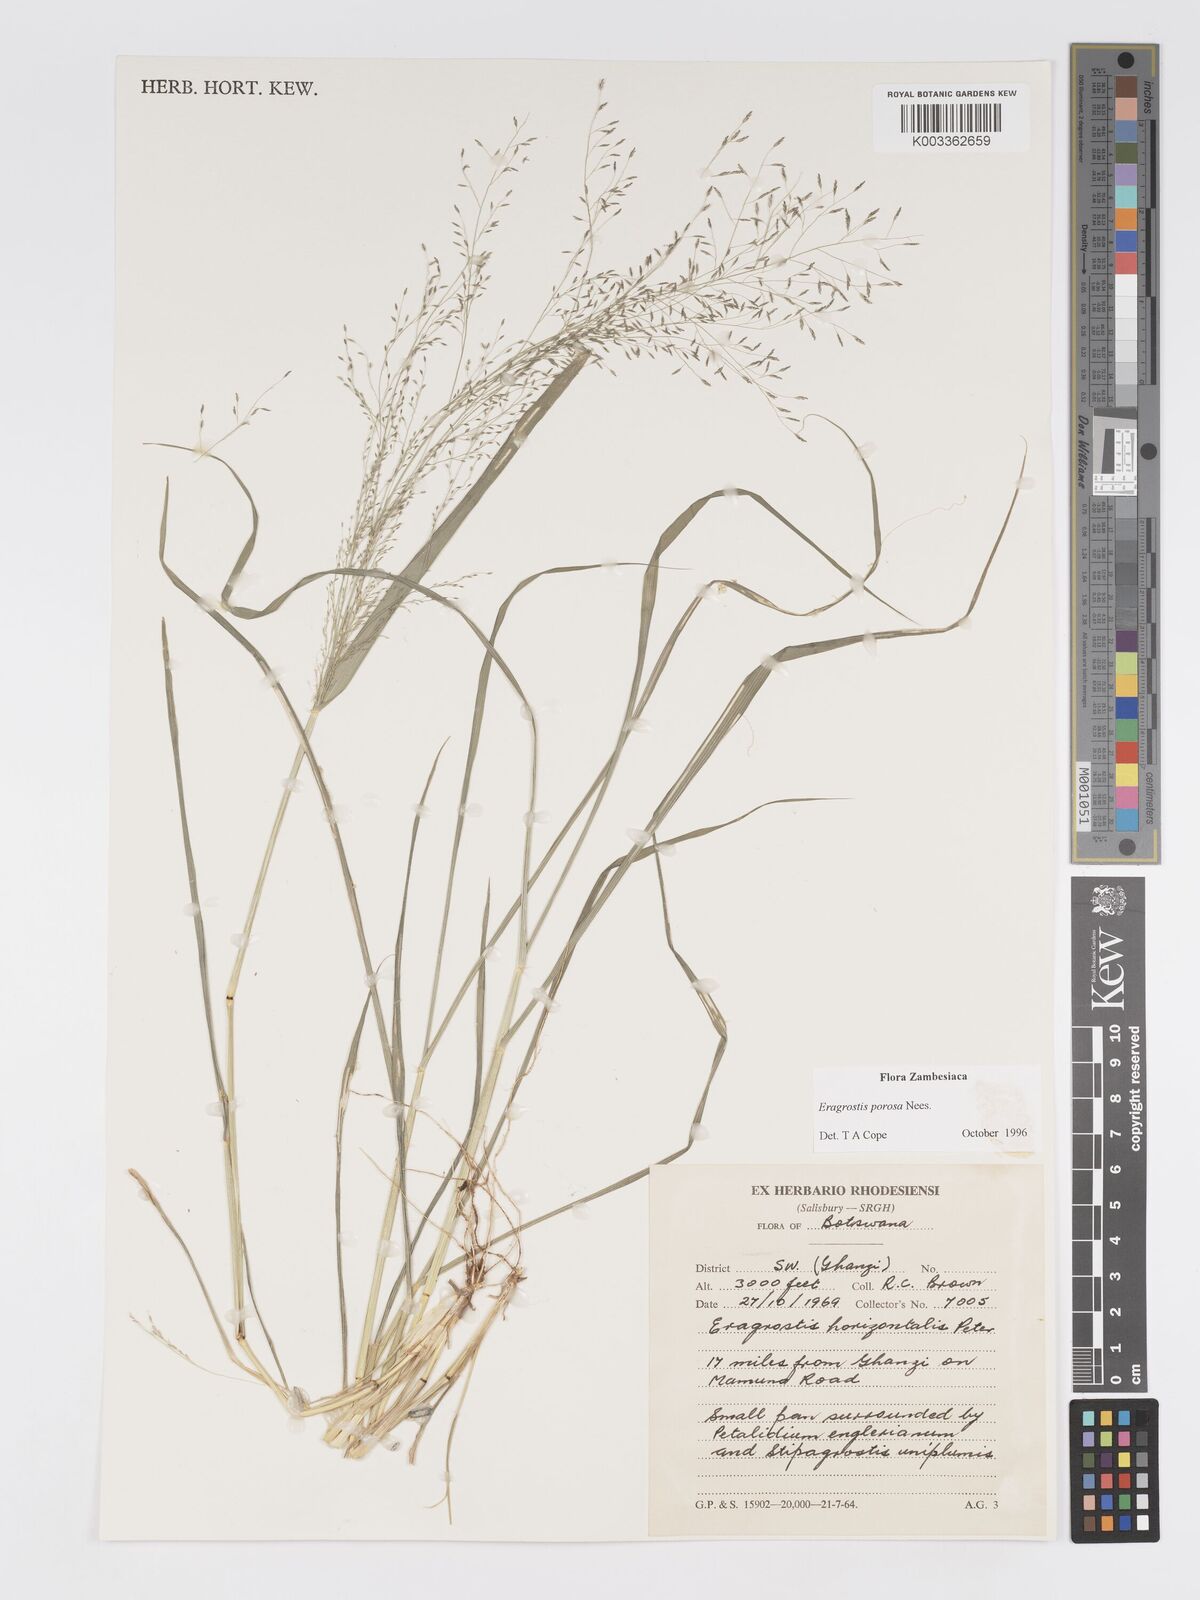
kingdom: Plantae
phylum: Tracheophyta
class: Liliopsida
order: Poales
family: Poaceae
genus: Eragrostis
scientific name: Eragrostis porosa
